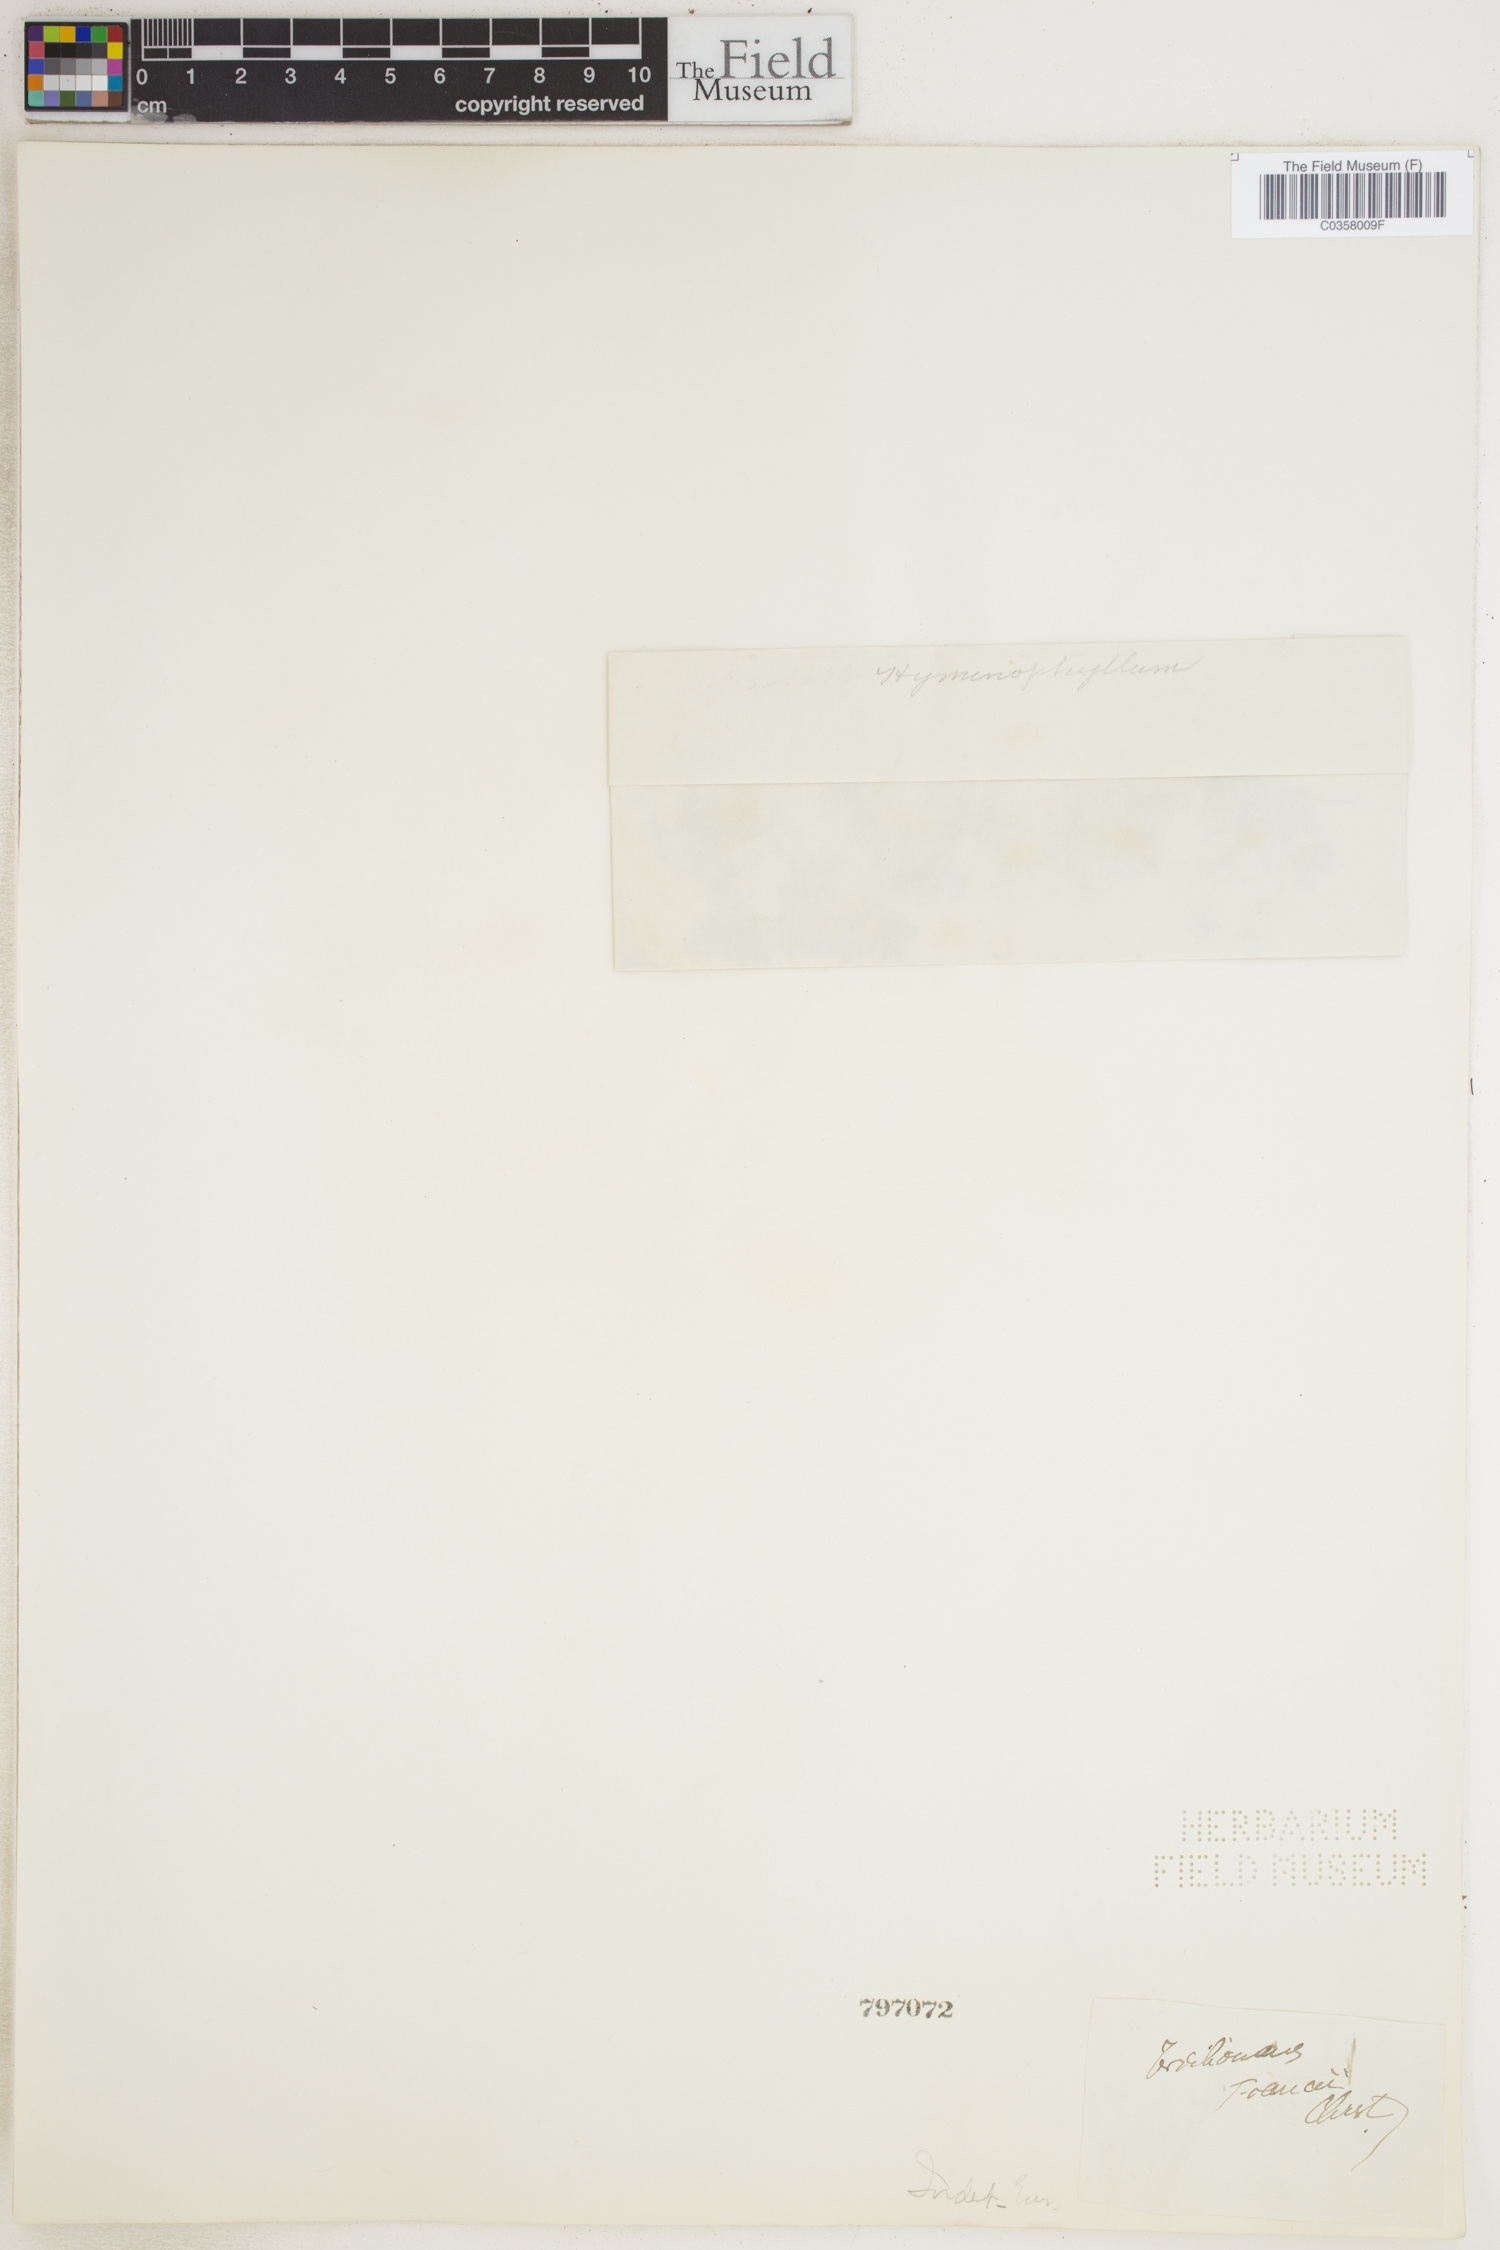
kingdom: Plantae
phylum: Tracheophyta
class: Polypodiopsida
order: Hymenophyllales
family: Hymenophyllaceae
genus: Trichomanes
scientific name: Trichomanes
